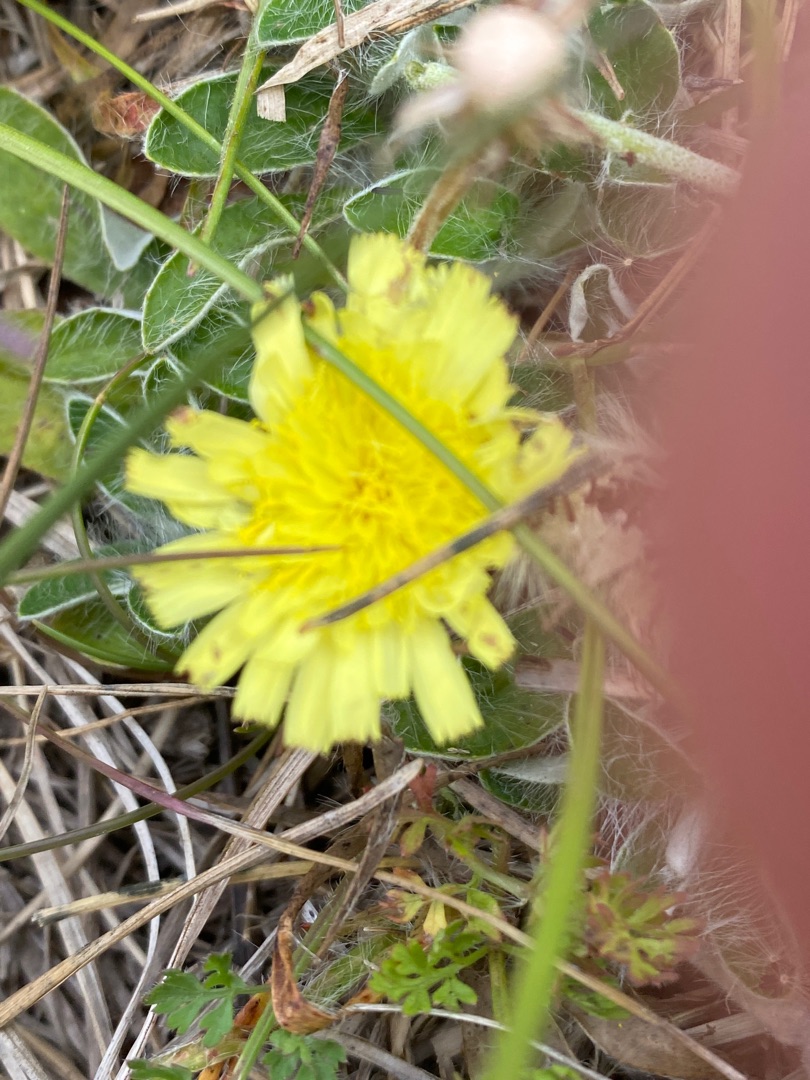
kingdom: Plantae
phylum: Tracheophyta
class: Magnoliopsida
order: Asterales
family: Asteraceae
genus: Pilosella
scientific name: Pilosella officinarum
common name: Håret høgeurt
